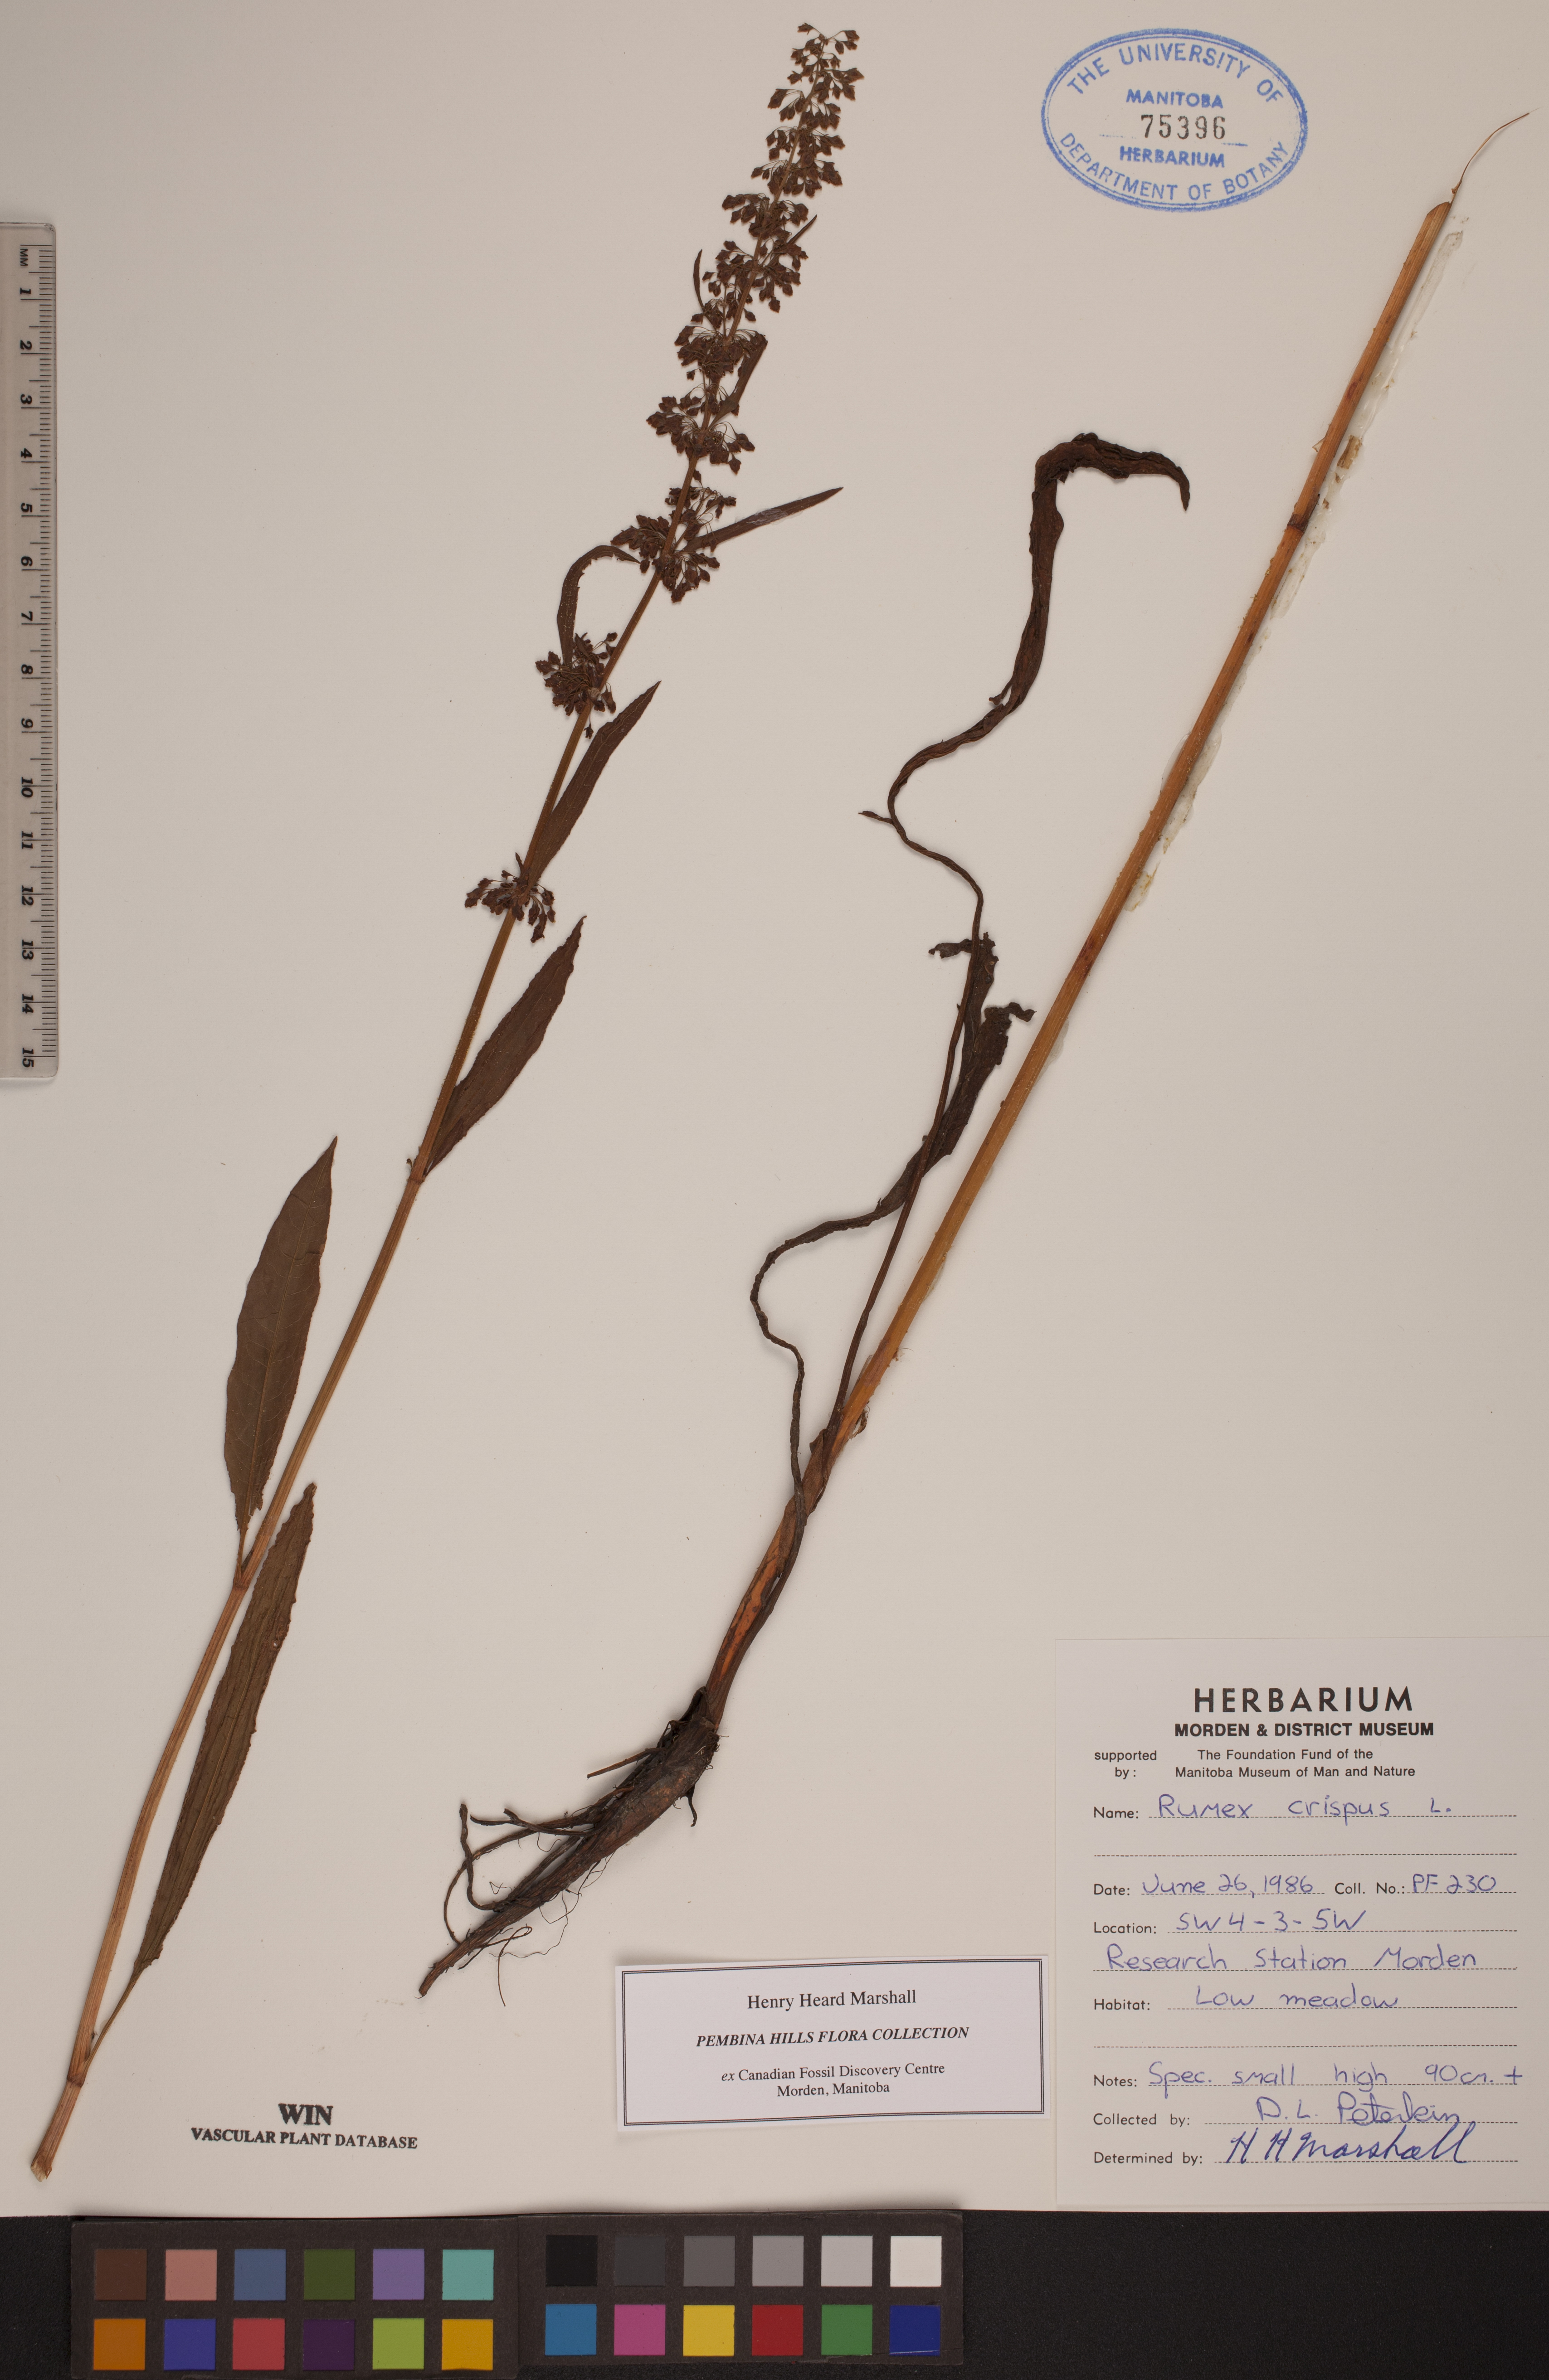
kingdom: Plantae
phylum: Tracheophyta
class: Magnoliopsida
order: Caryophyllales
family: Polygonaceae
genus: Rumex
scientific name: Rumex crispus
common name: Curled dock
